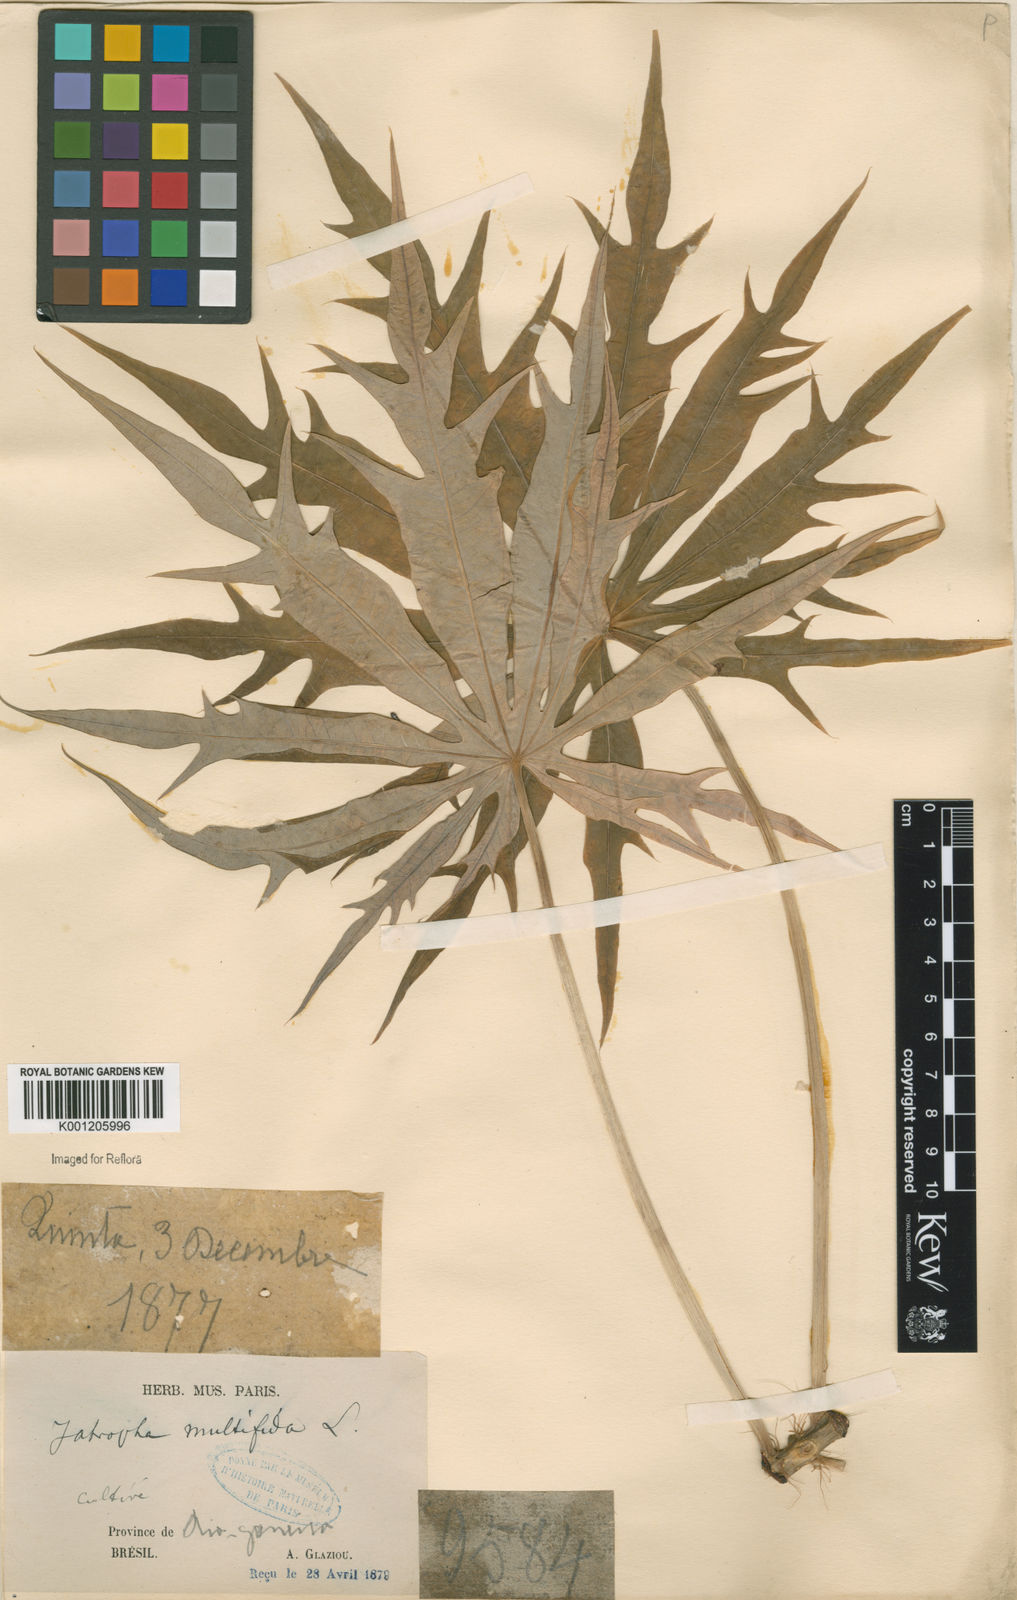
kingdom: Plantae
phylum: Tracheophyta
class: Magnoliopsida
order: Malpighiales
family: Euphorbiaceae
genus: Jatropha
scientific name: Jatropha multifida
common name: Coralbush
